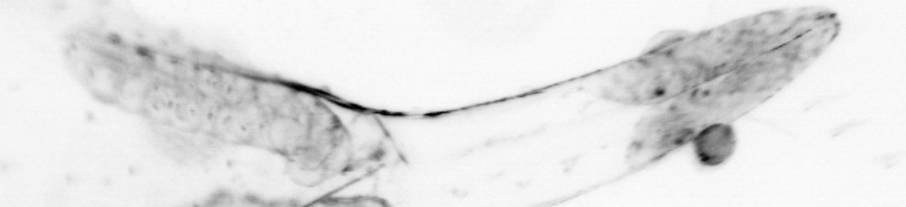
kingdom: Animalia
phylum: Chaetognatha
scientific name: Chaetognatha
